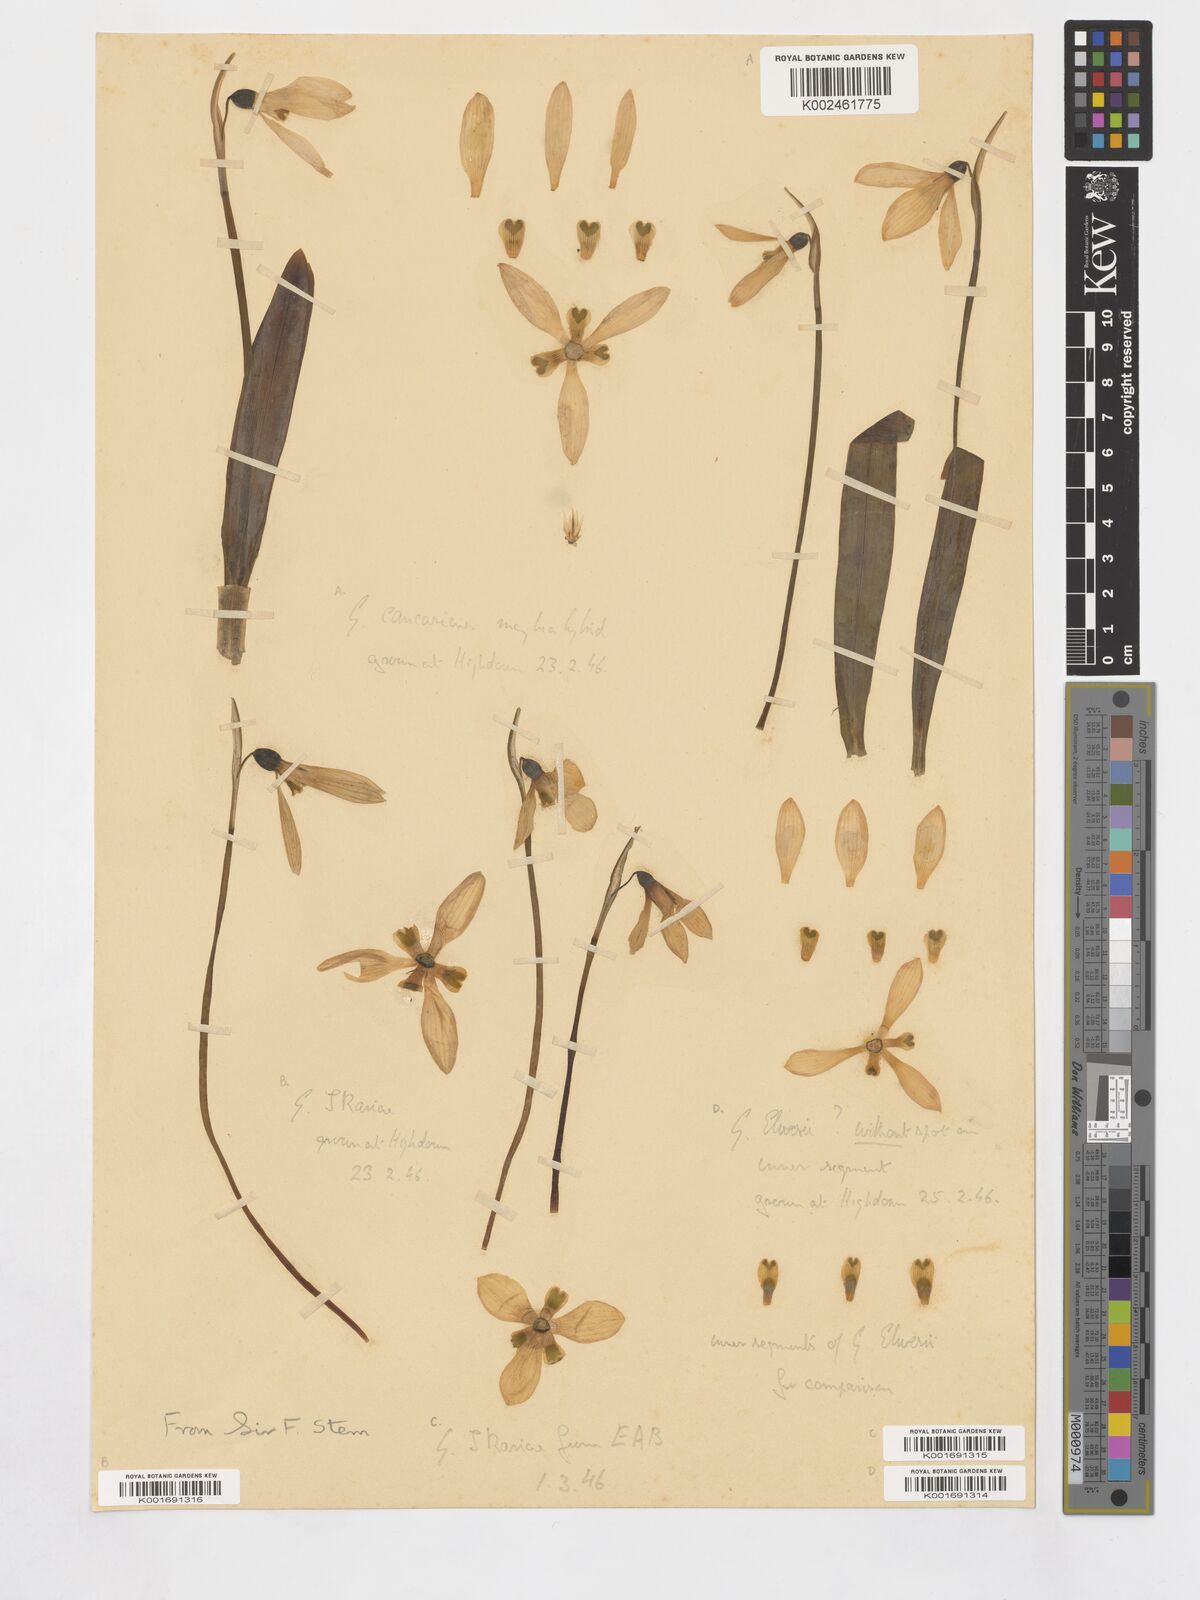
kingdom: Plantae
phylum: Tracheophyta
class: Liliopsida
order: Asparagales
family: Amaryllidaceae
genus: Galanthus
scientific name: Galanthus ikariae
